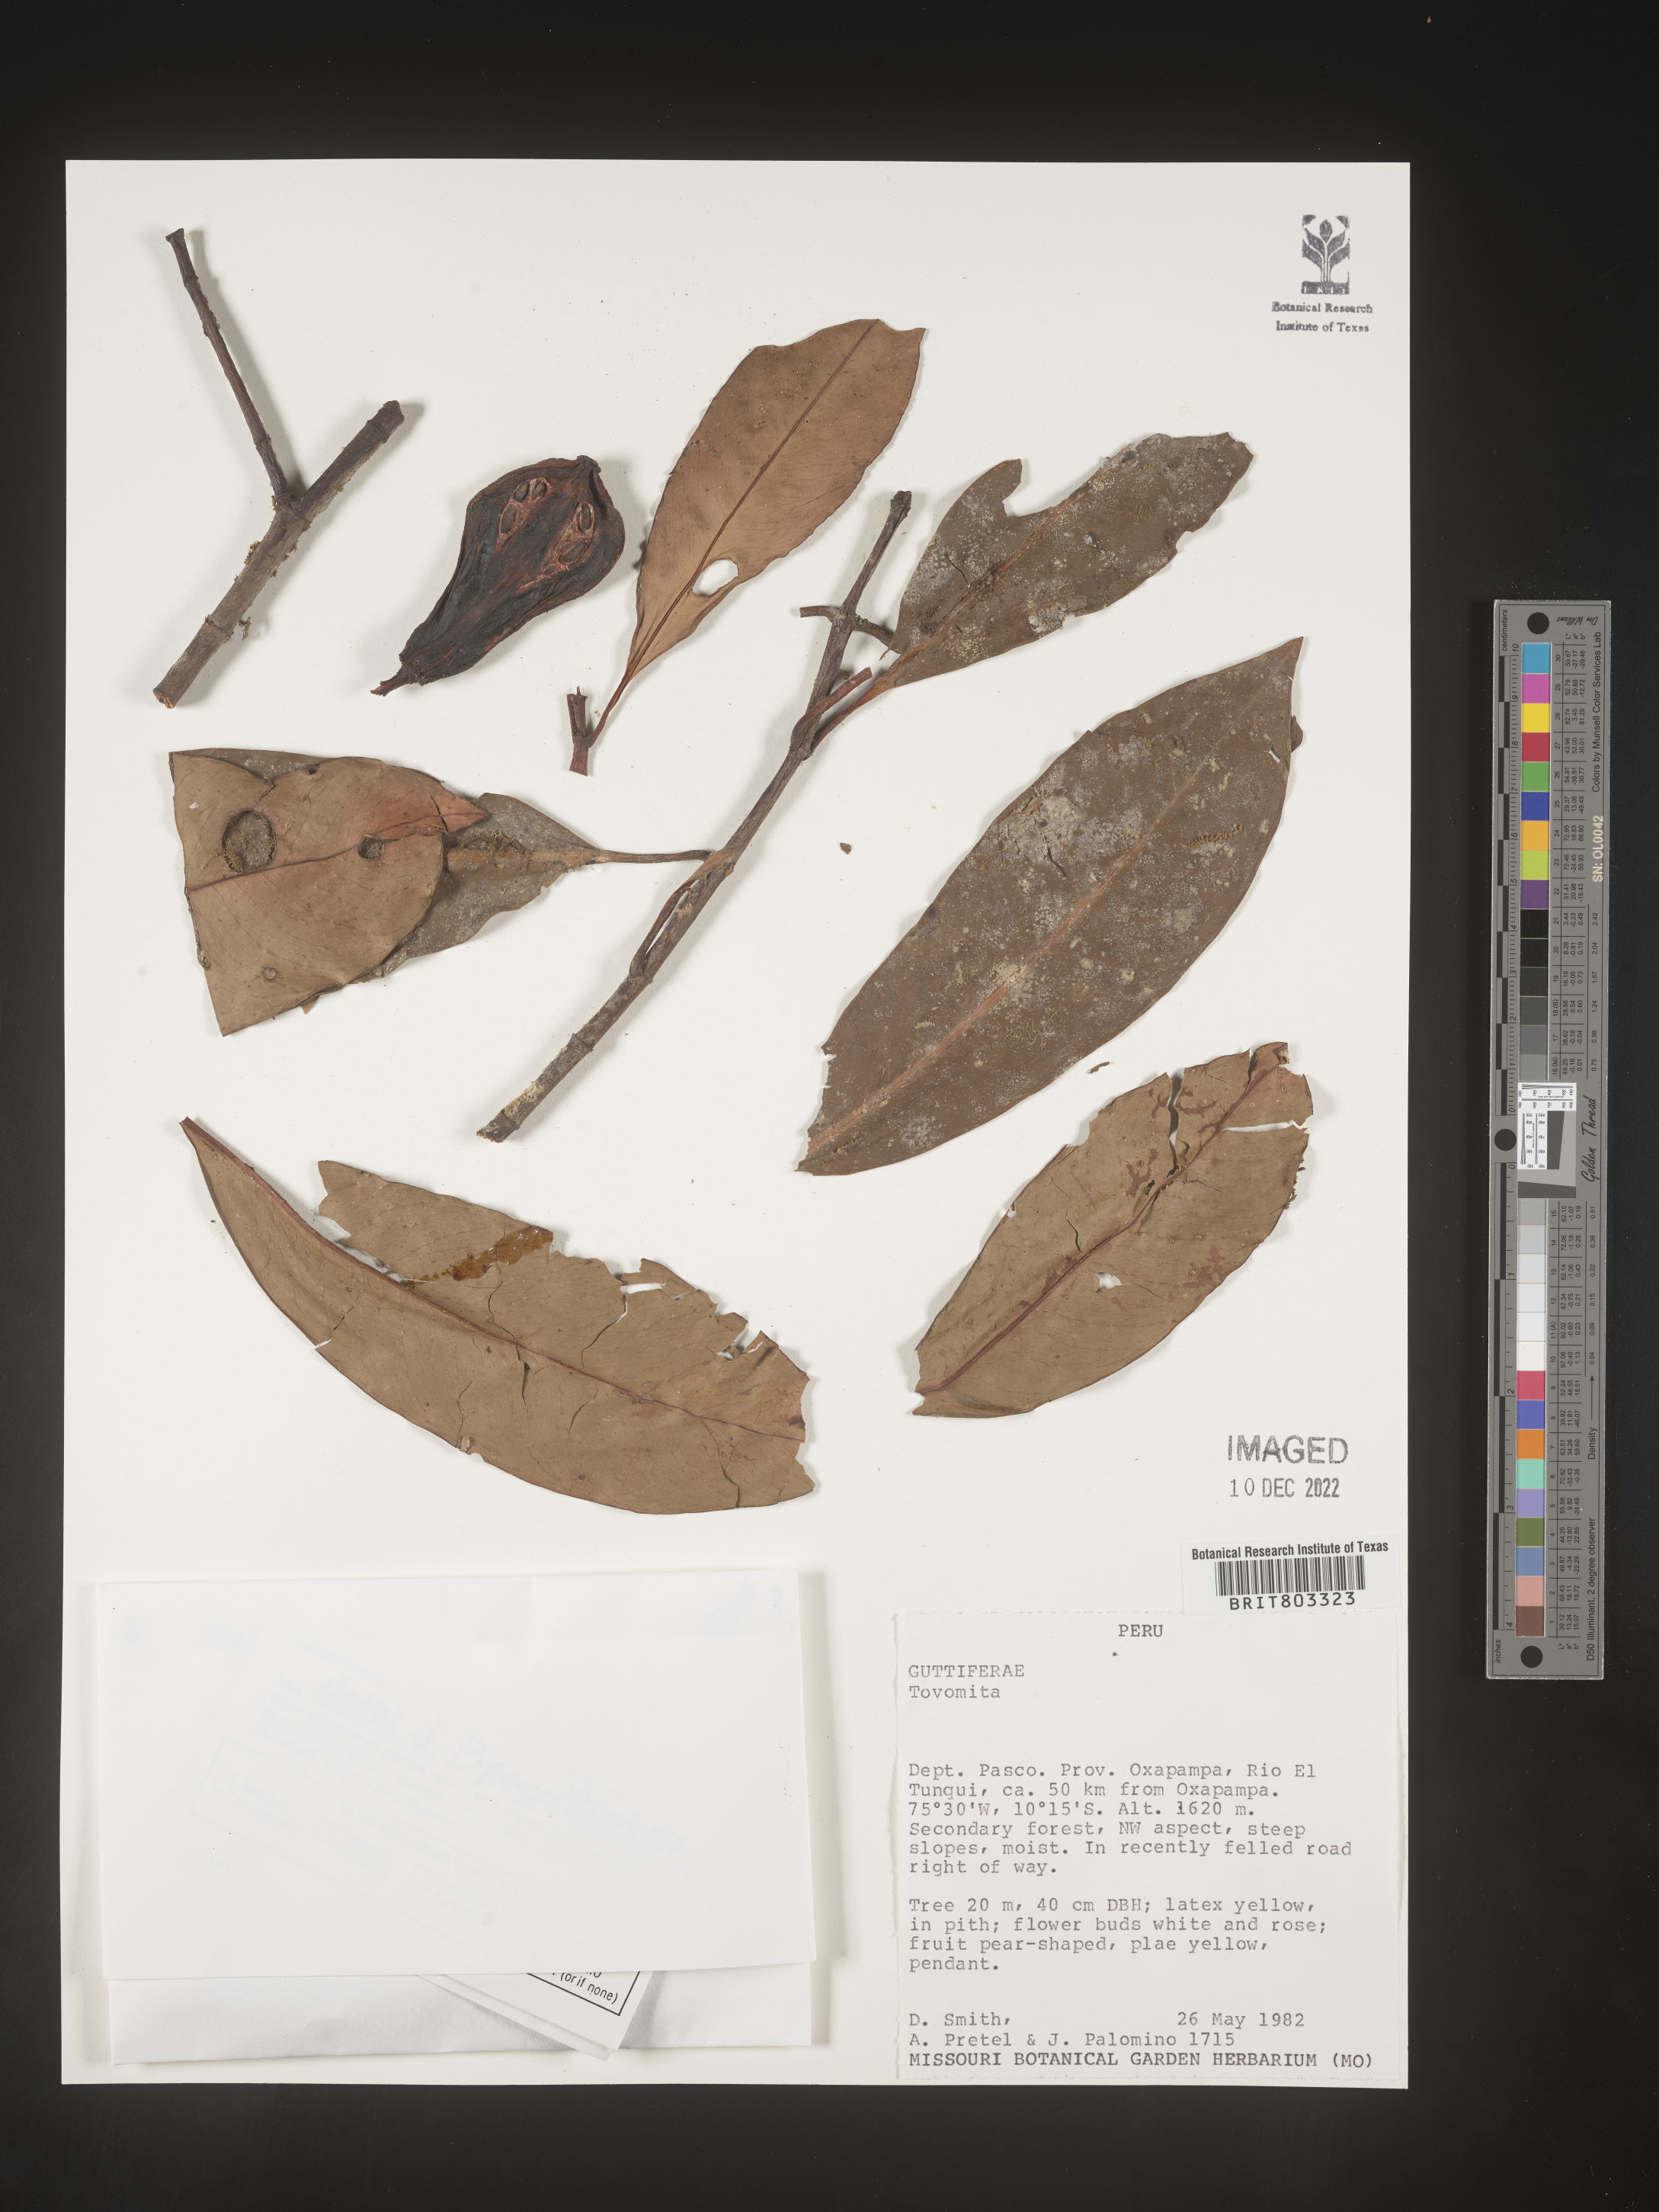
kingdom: Plantae
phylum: Tracheophyta
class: Magnoliopsida
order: Malpighiales
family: Clusiaceae
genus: Tovomita
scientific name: Tovomita
